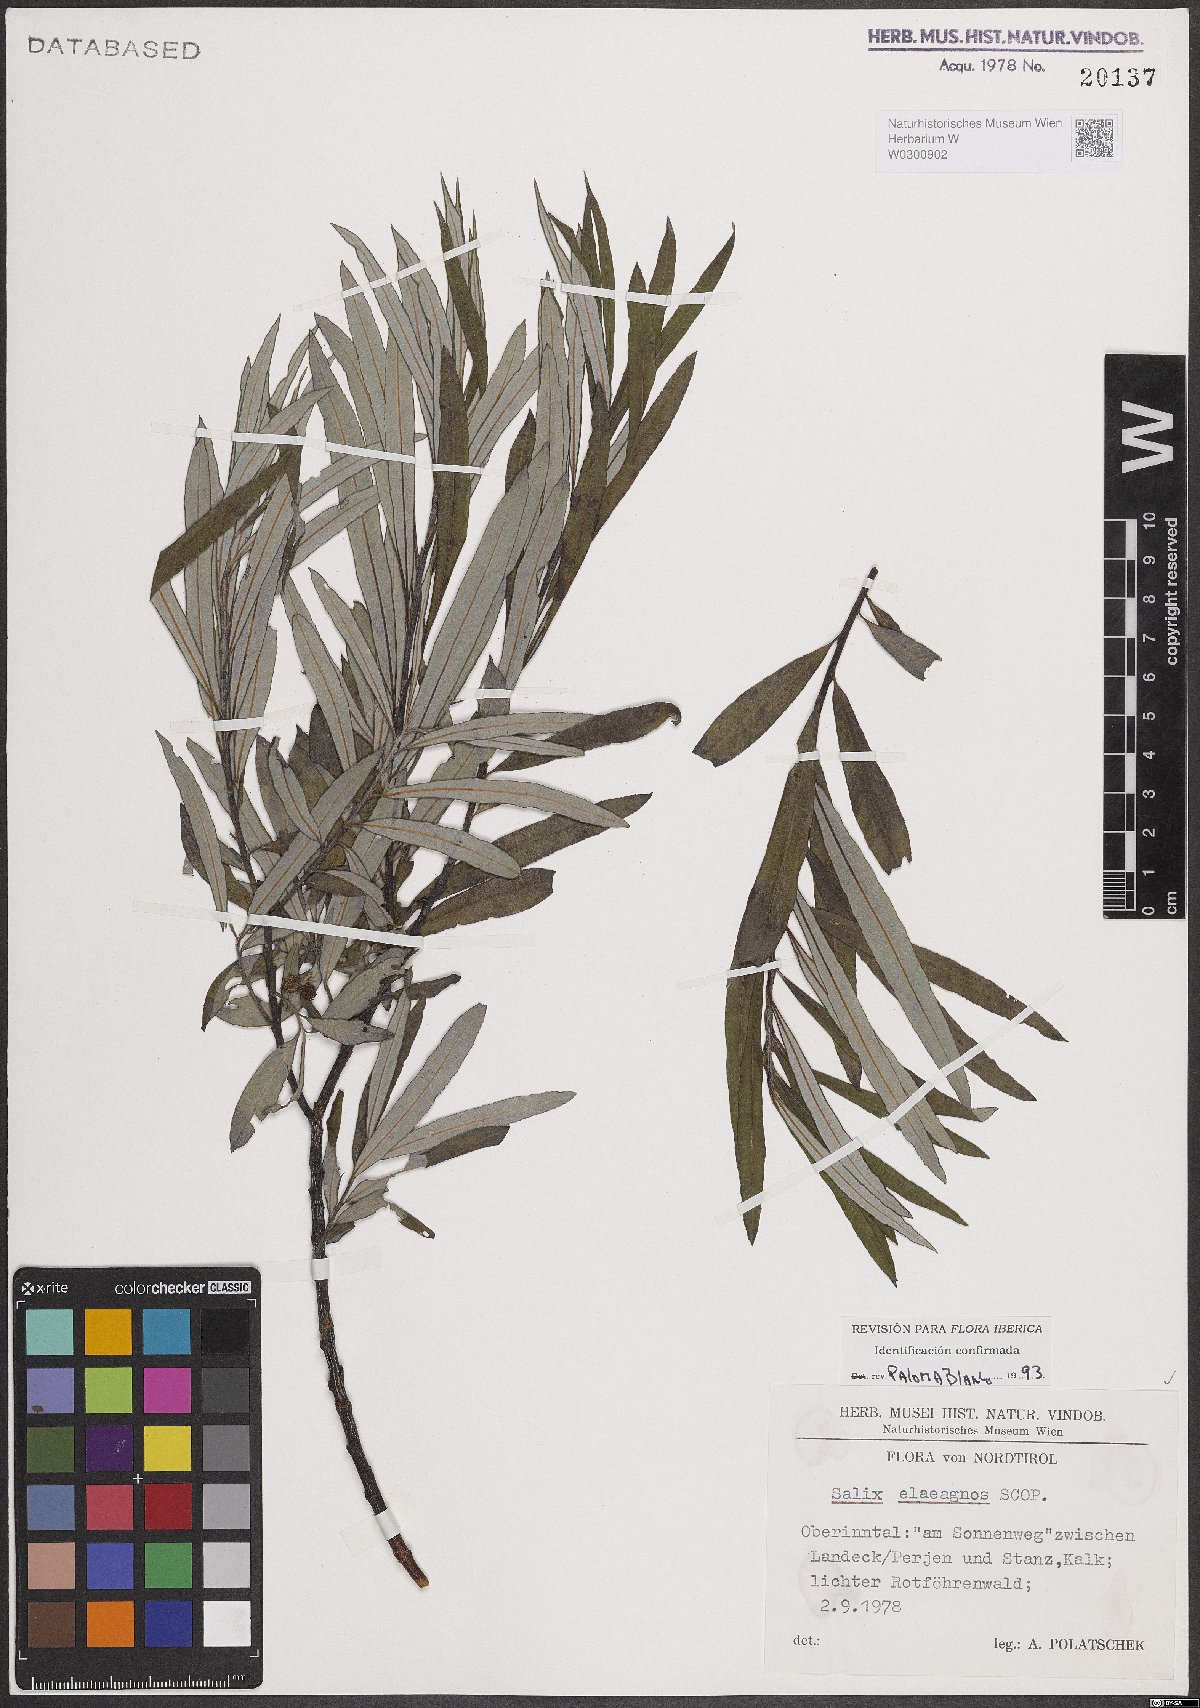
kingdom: Plantae
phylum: Tracheophyta
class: Magnoliopsida
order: Malpighiales
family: Salicaceae
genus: Salix
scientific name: Salix eleagnos
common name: Elaeagnus willow
